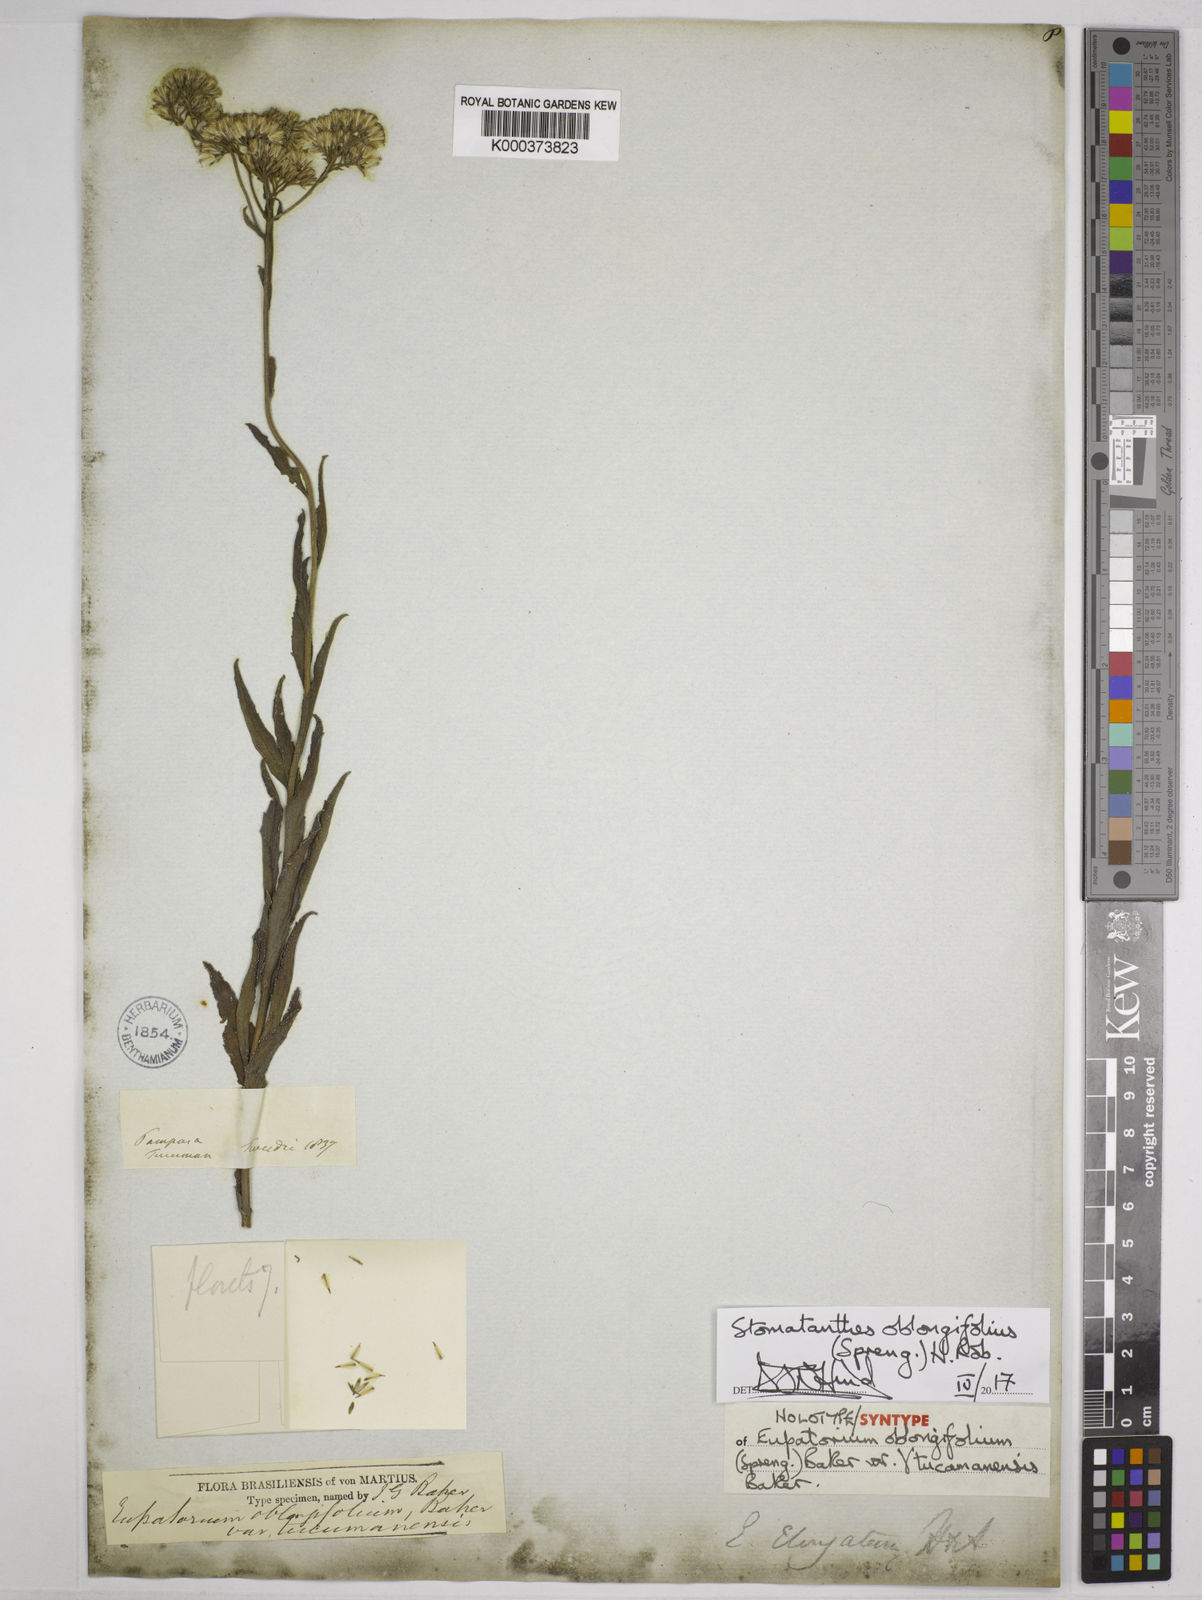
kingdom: Plantae
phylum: Tracheophyta
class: Magnoliopsida
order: Asterales
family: Asteraceae
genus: Stomatanthes
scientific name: Stomatanthes oblongifolius
